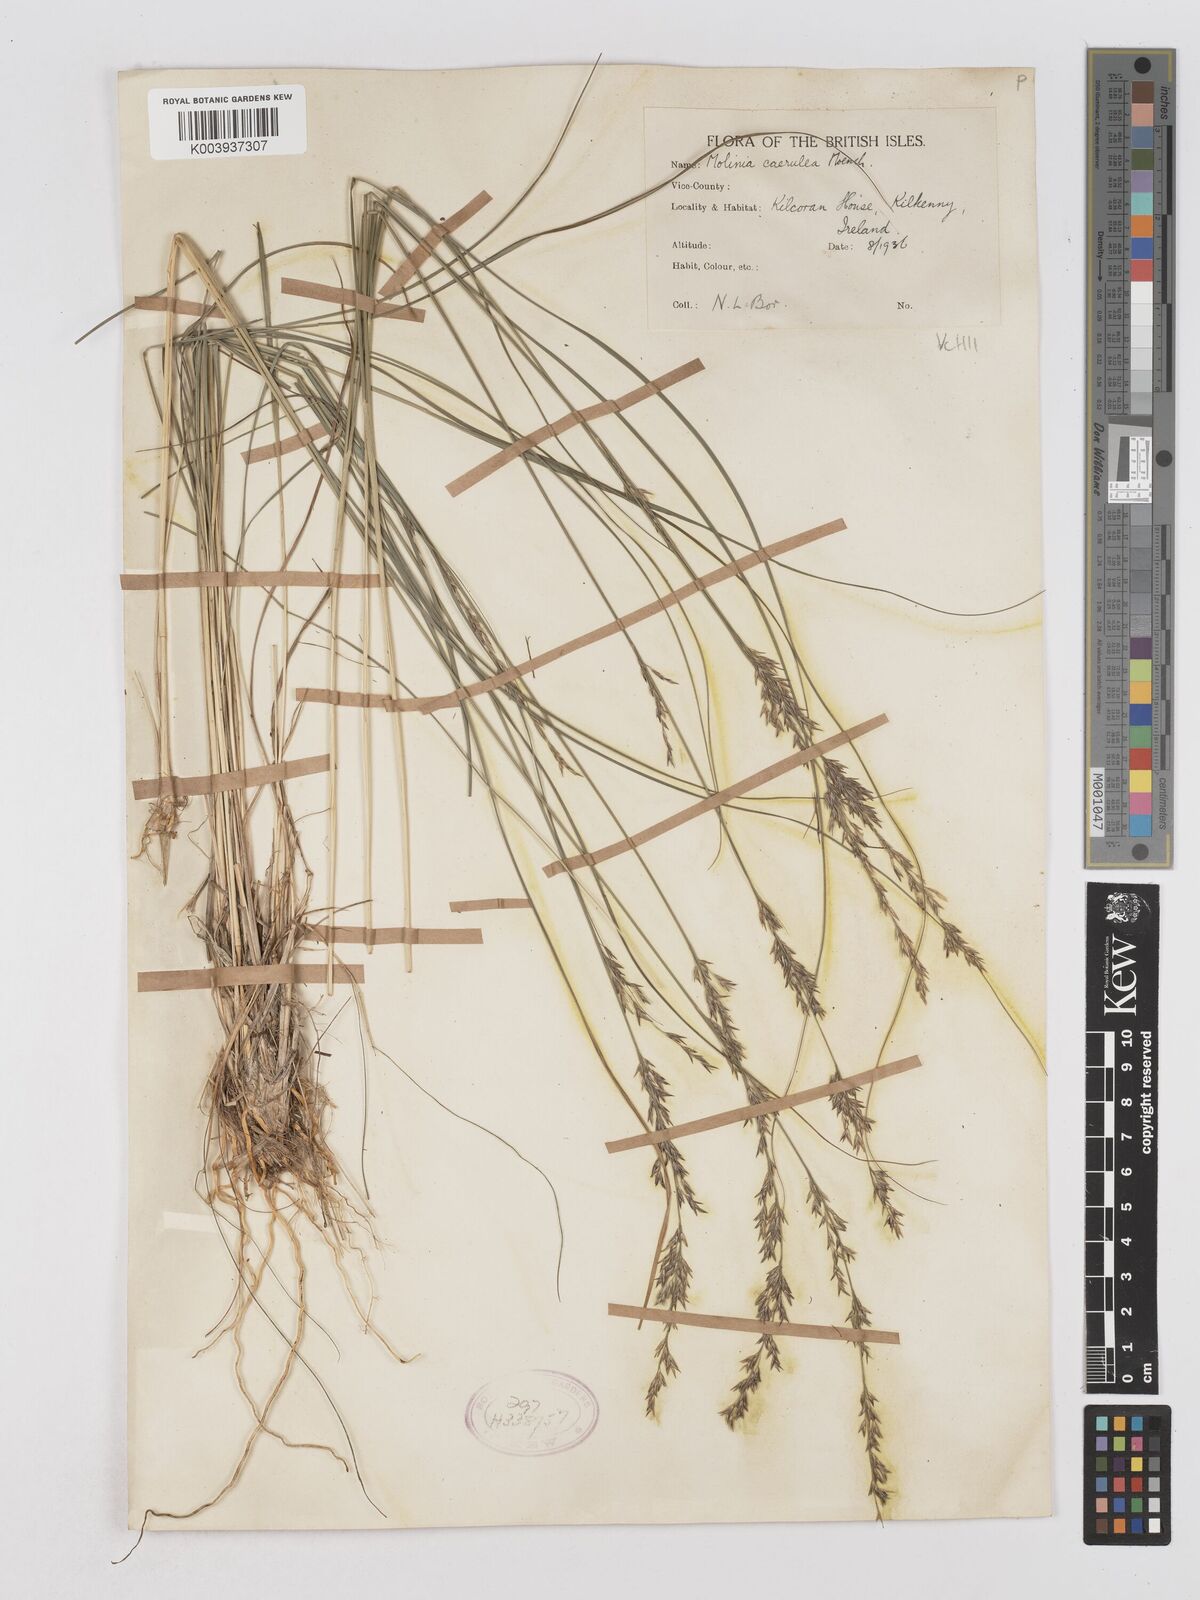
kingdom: Plantae
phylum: Tracheophyta
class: Liliopsida
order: Poales
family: Poaceae
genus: Molinia
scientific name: Molinia caerulea
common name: Purple moor-grass
